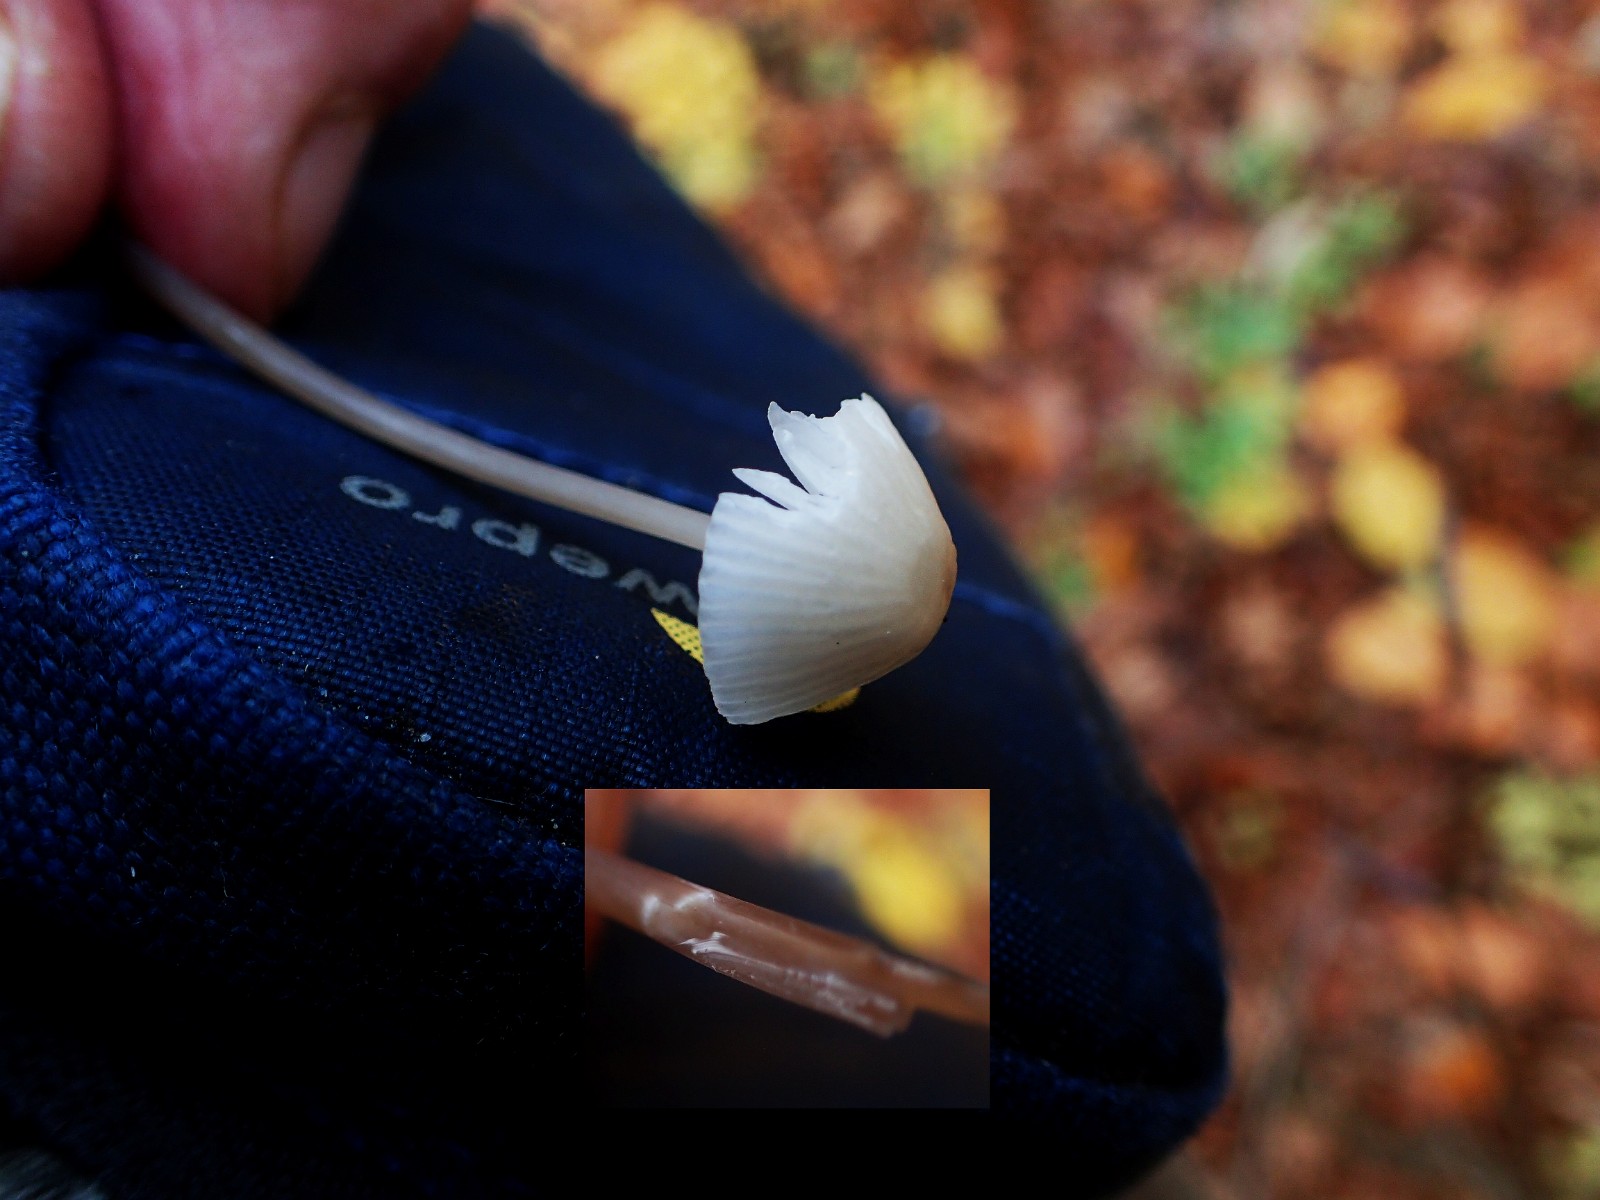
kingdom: Fungi
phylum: Basidiomycota
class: Agaricomycetes
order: Agaricales
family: Mycenaceae
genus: Mycena
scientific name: Mycena galopus
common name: hvidmælket huesvamp
